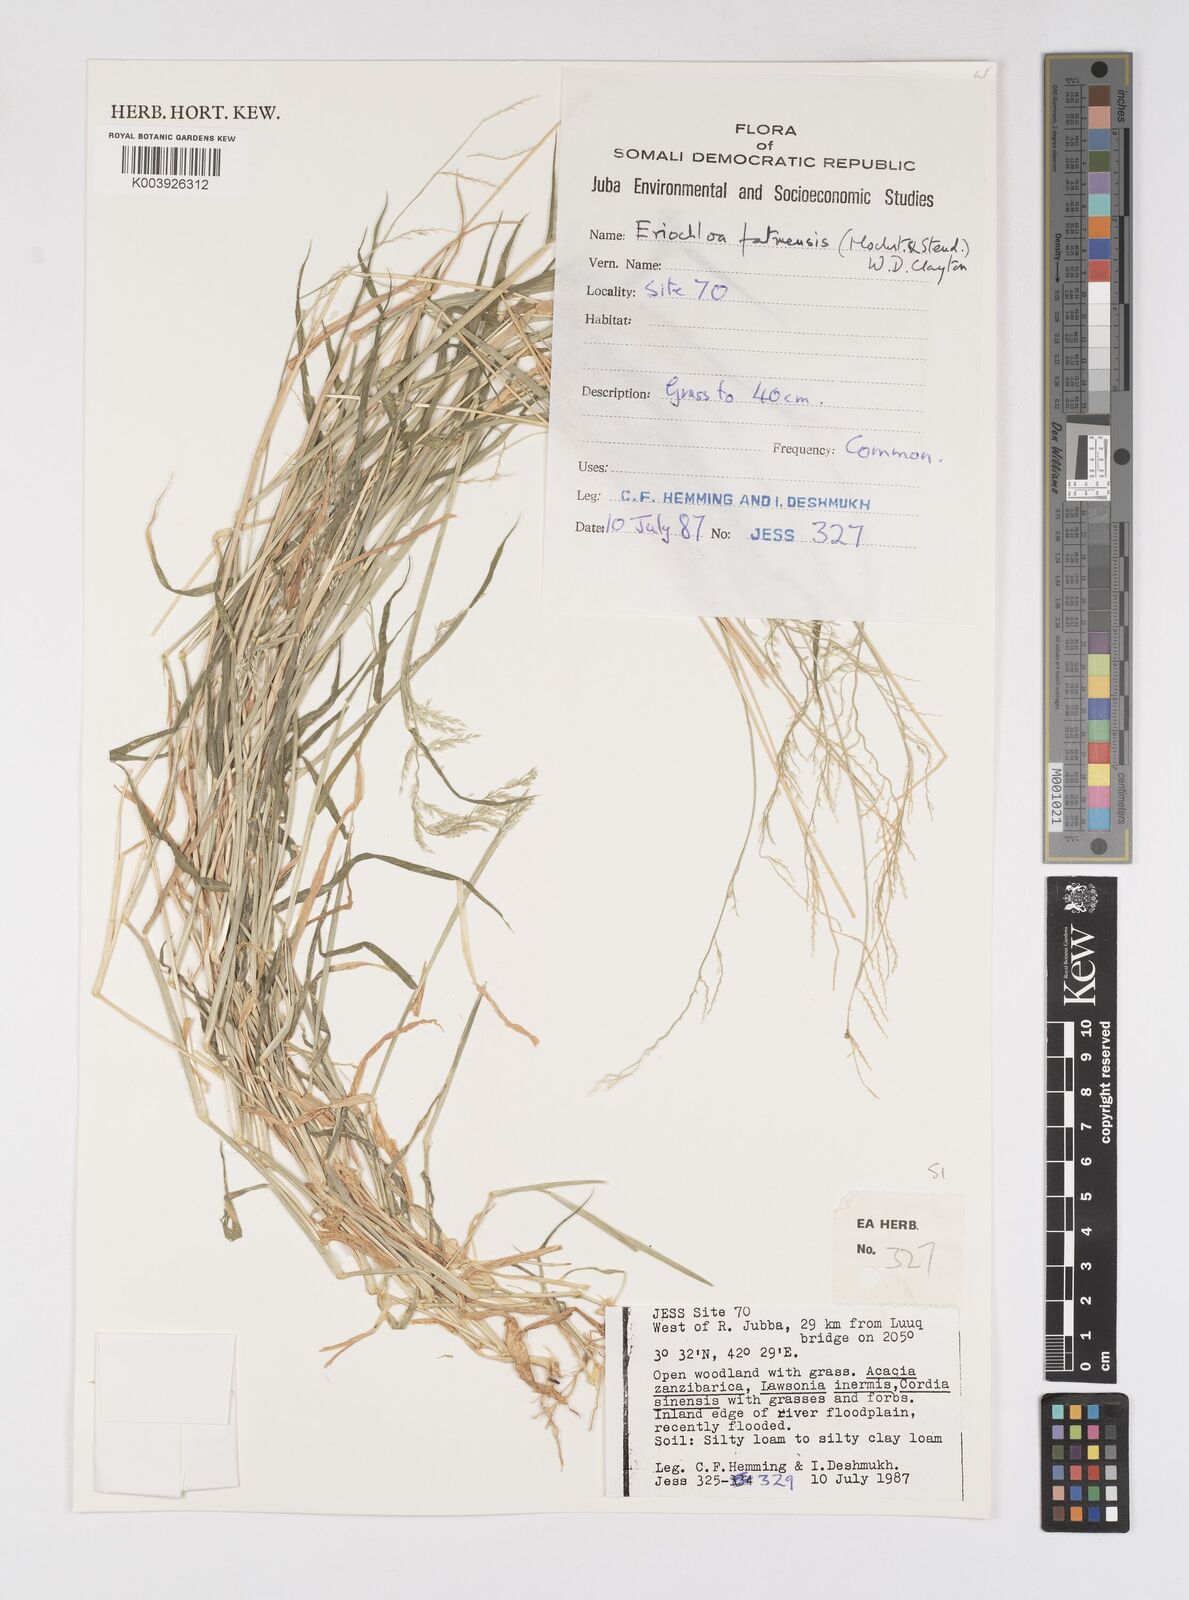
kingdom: Plantae
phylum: Tracheophyta
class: Liliopsida
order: Poales
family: Poaceae
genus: Eriochloa
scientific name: Eriochloa barbatus
